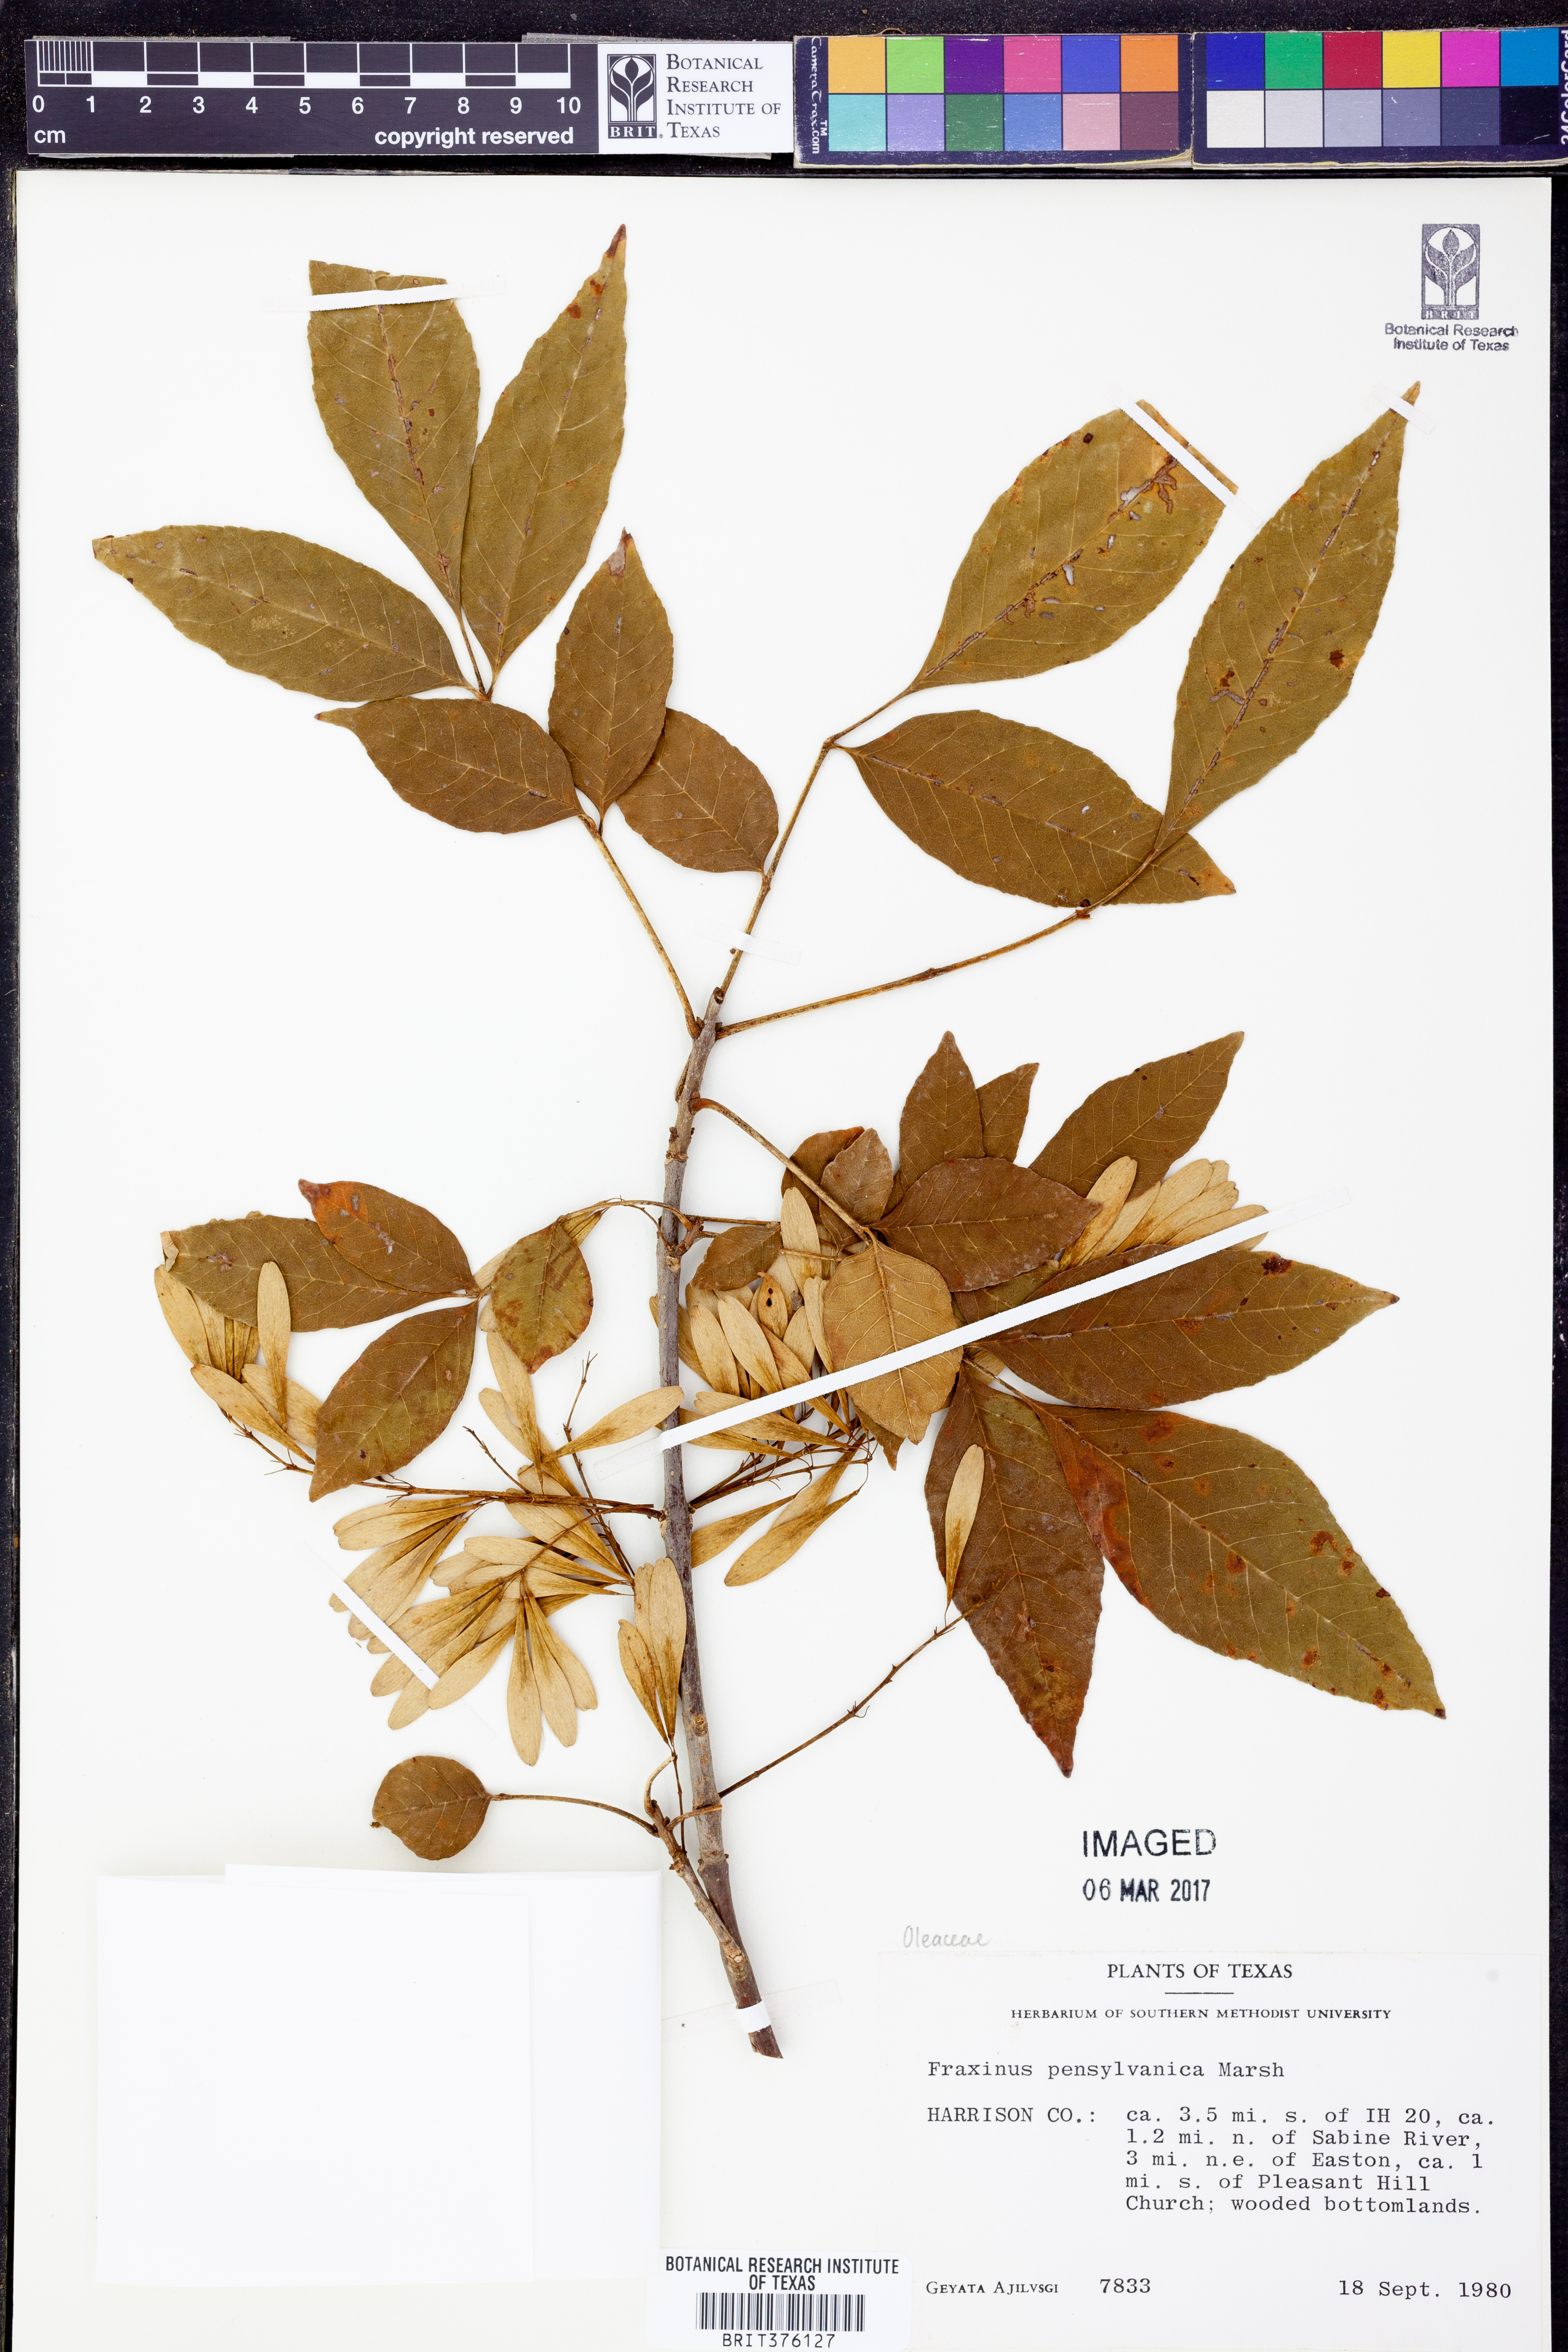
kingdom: Plantae
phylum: Tracheophyta
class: Magnoliopsida
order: Lamiales
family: Oleaceae
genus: Fraxinus
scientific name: Fraxinus pennsylvanica
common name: Green ash
